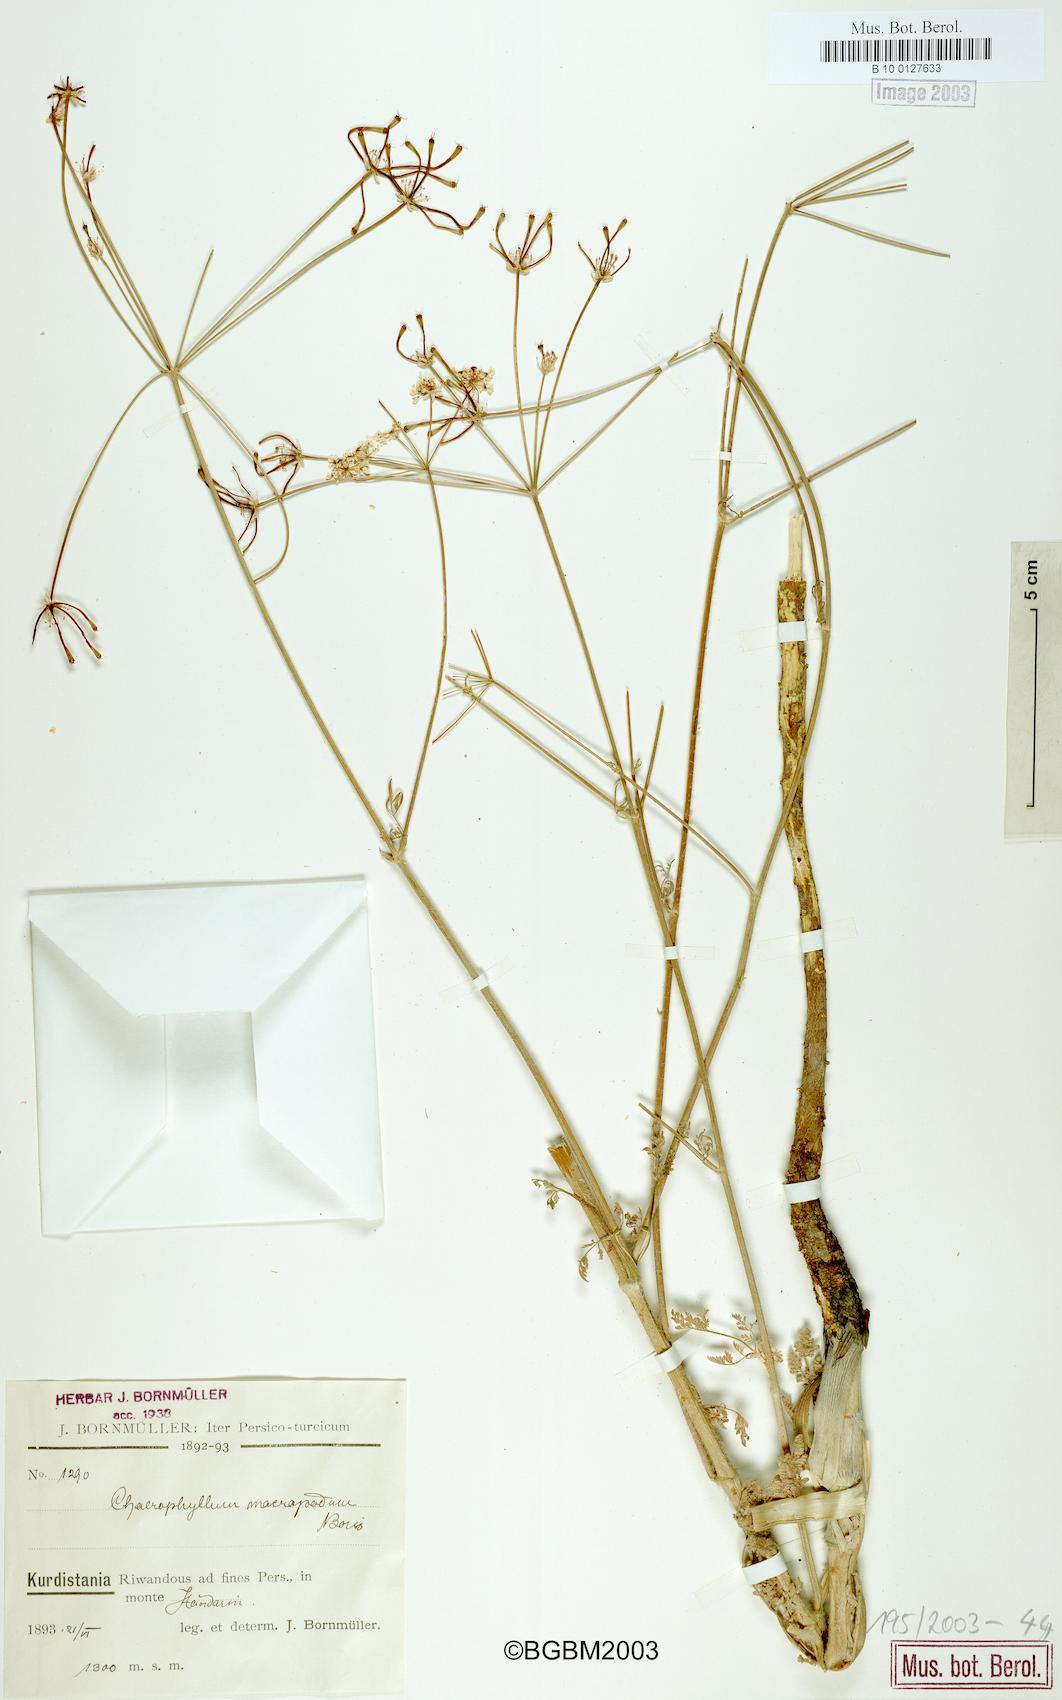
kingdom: Plantae
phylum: Tracheophyta
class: Magnoliopsida
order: Apiales
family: Apiaceae
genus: Chaerophyllum
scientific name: Chaerophyllum macropodum
